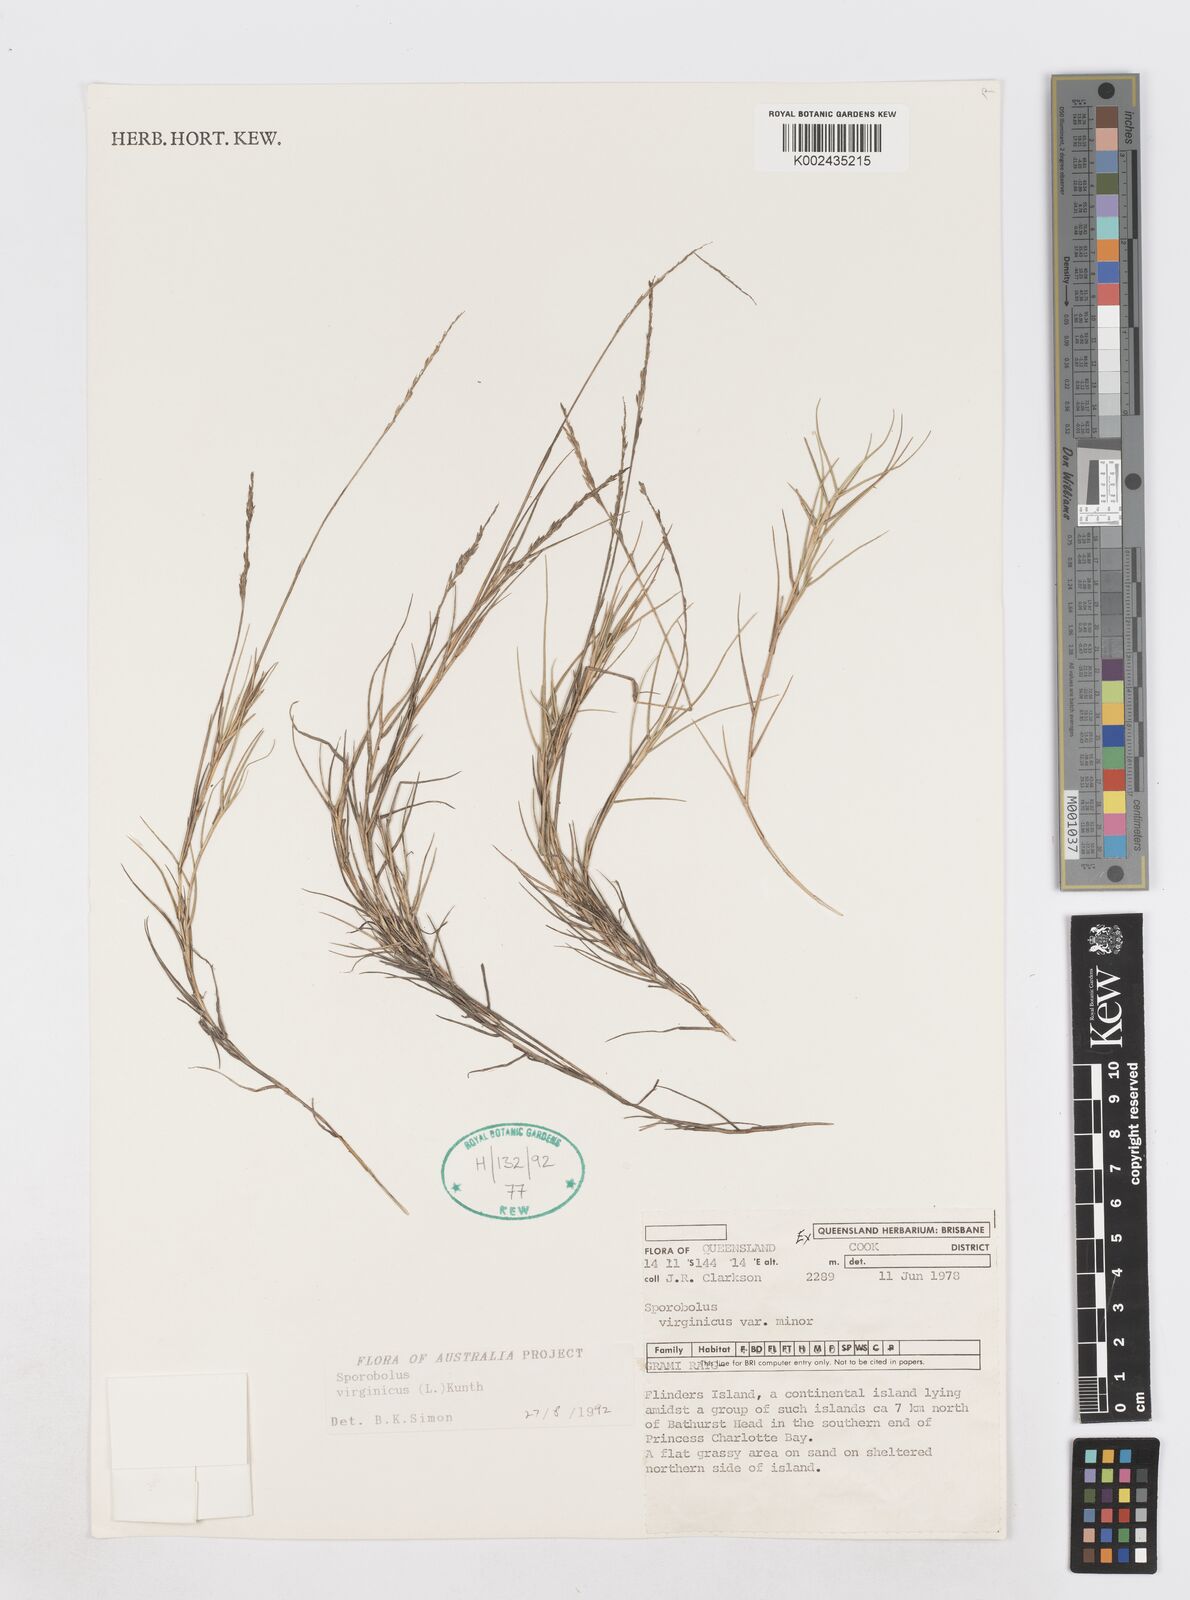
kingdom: Plantae
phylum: Tracheophyta
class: Liliopsida
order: Poales
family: Poaceae
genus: Sporobolus
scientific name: Sporobolus virginicus
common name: Beach dropseed
